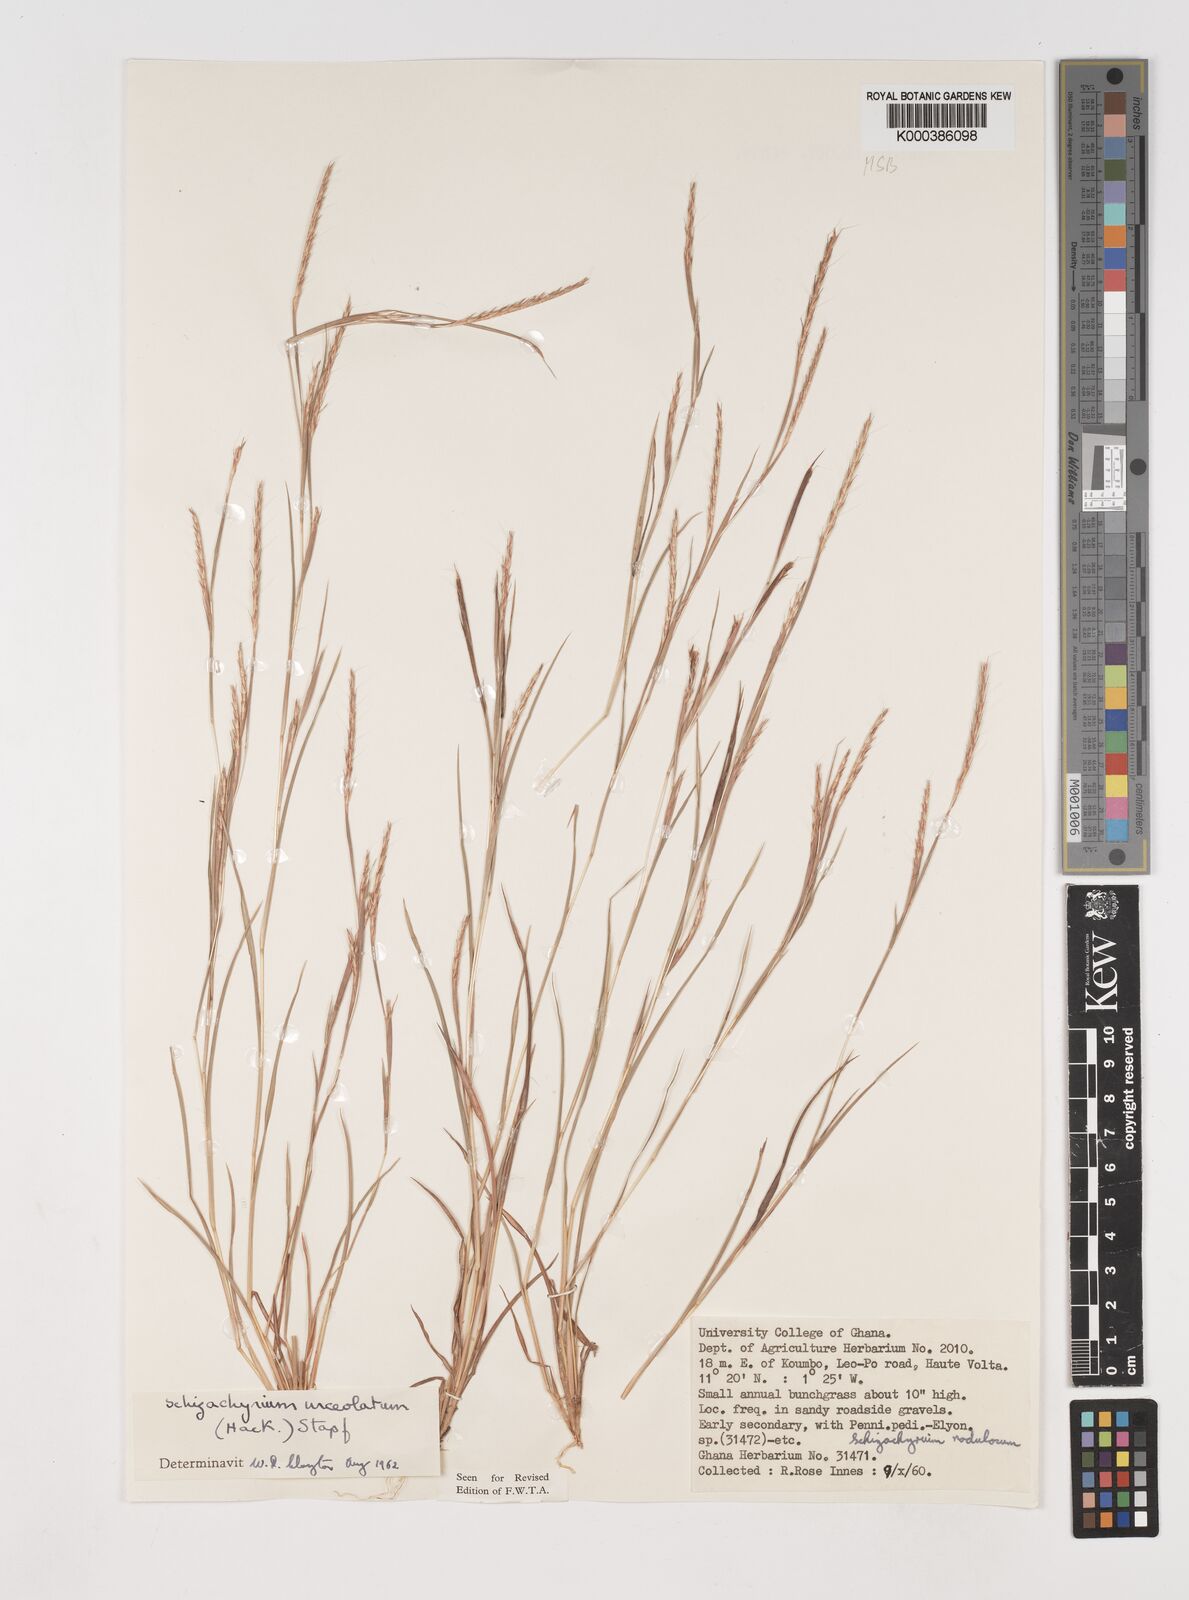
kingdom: Plantae
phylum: Tracheophyta
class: Liliopsida
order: Poales
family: Poaceae
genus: Schizachyrium
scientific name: Schizachyrium urceolatum
